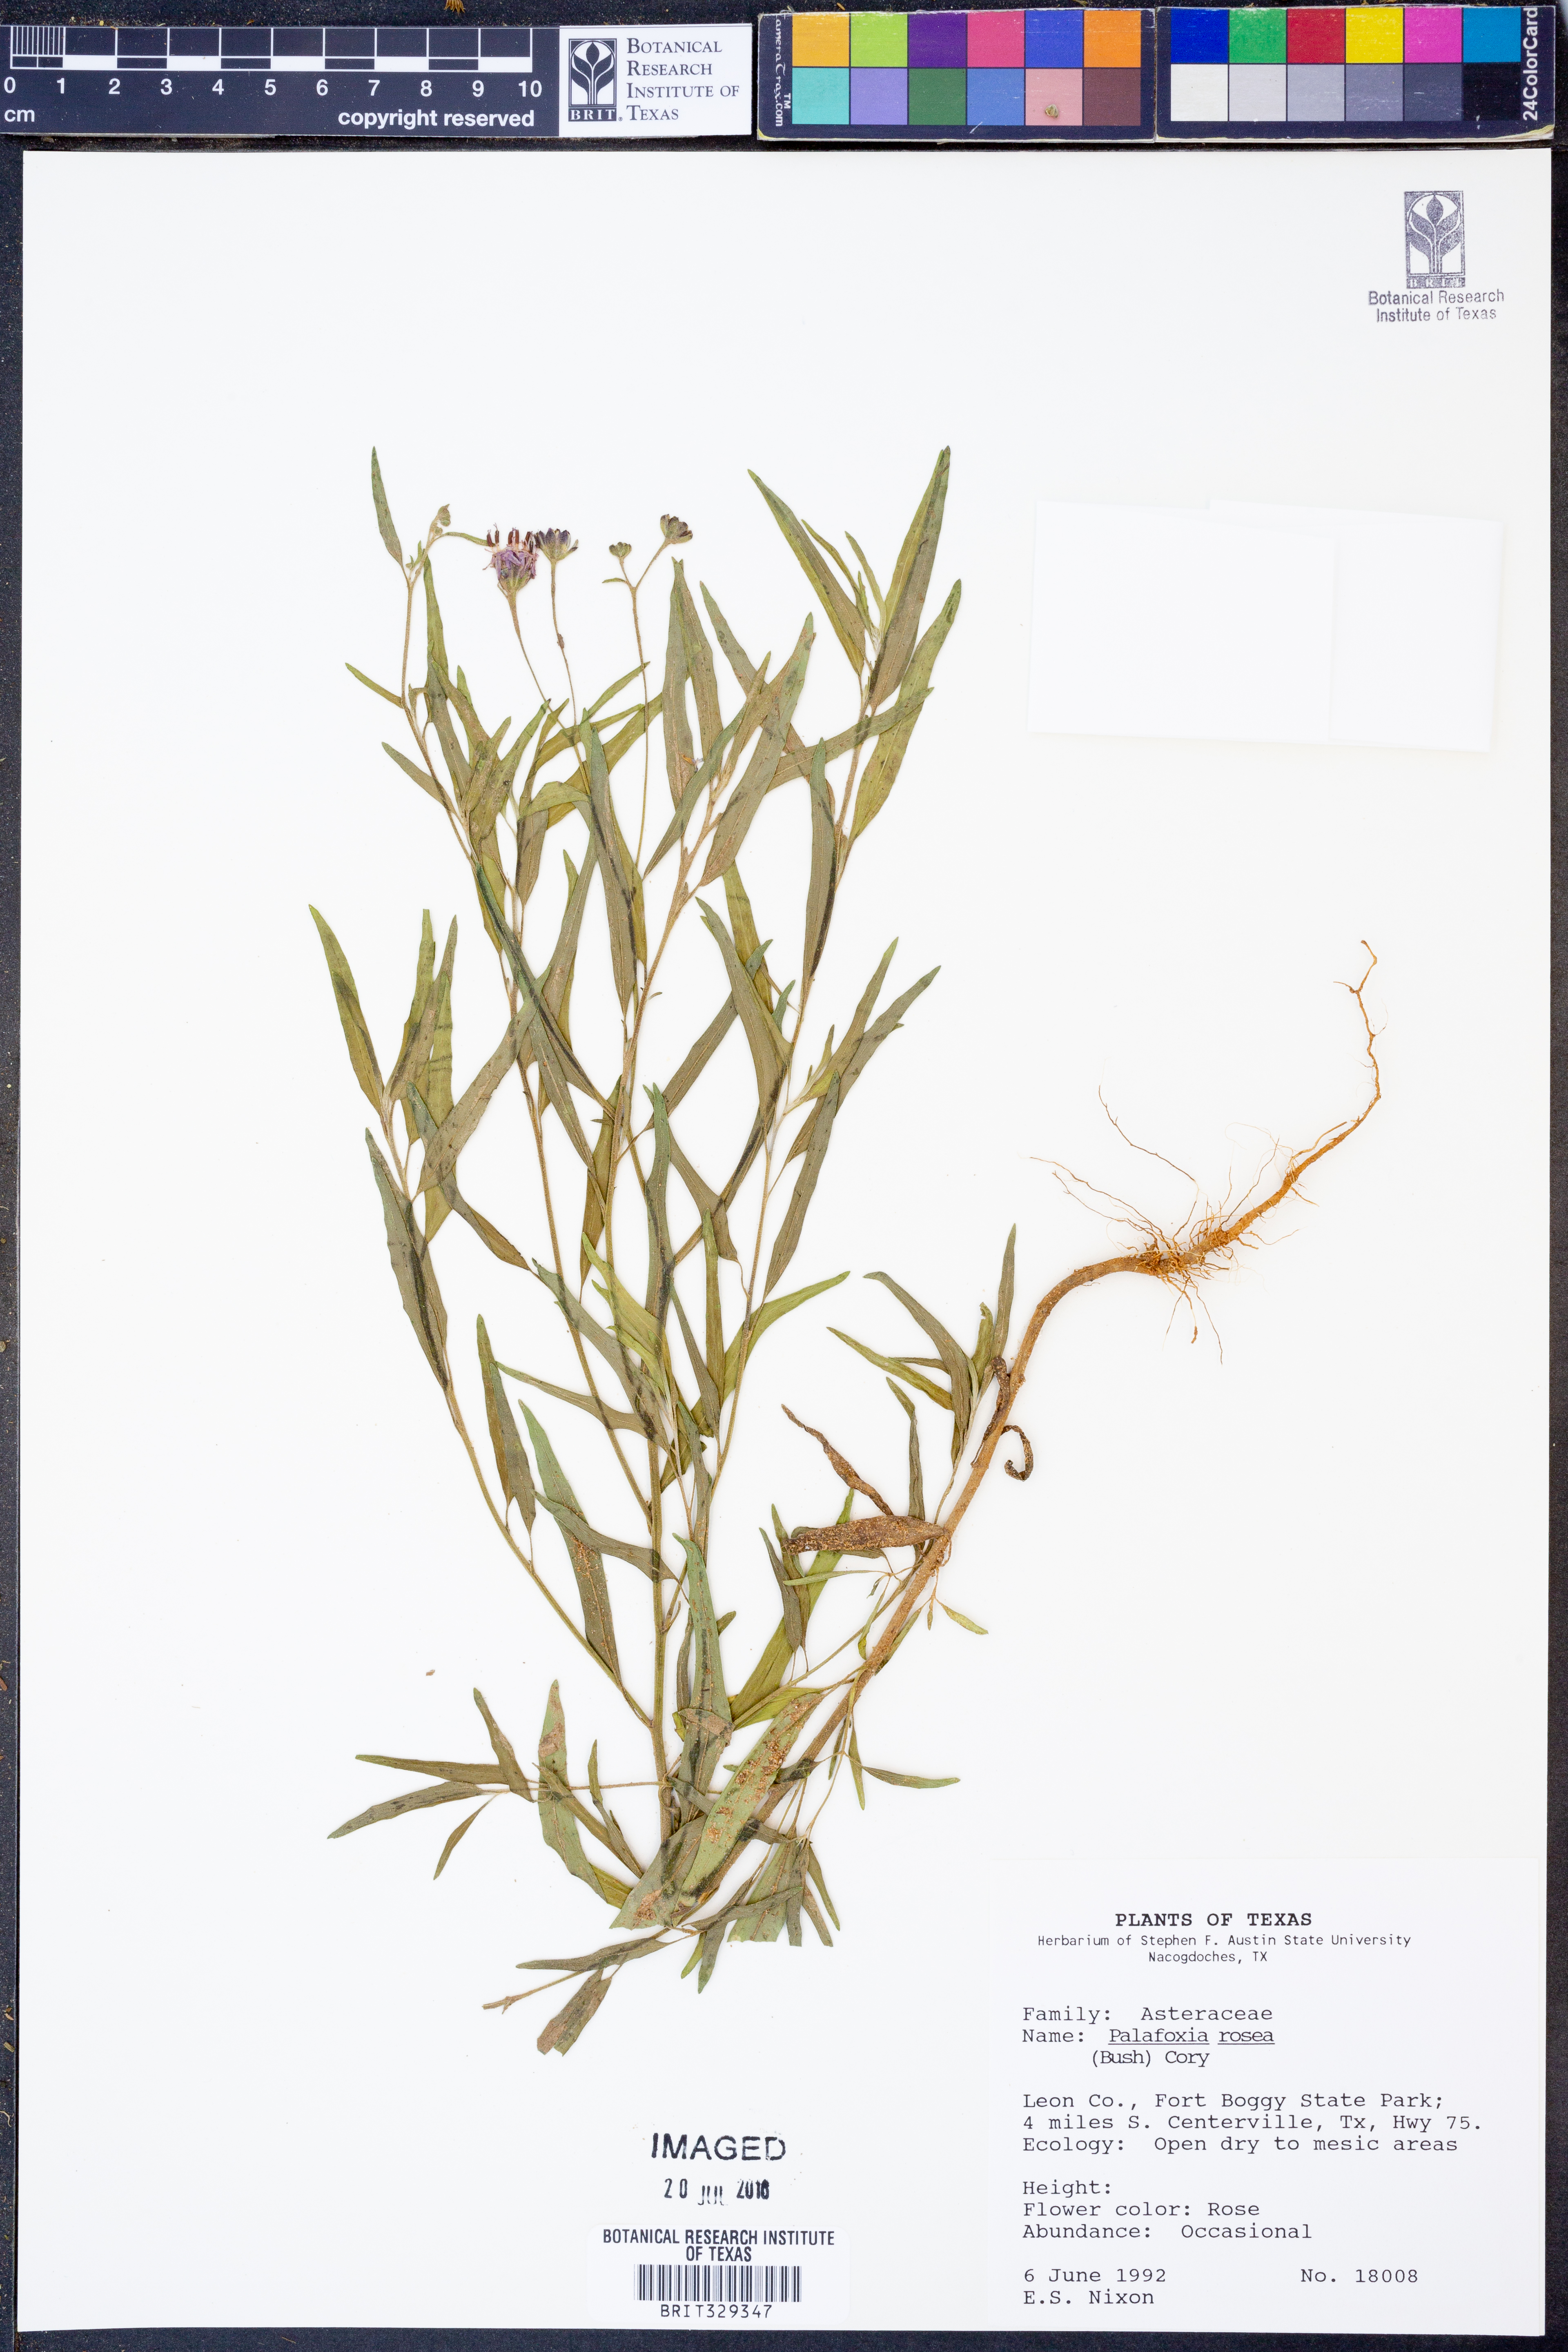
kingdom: Plantae
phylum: Tracheophyta
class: Magnoliopsida
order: Asterales
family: Asteraceae
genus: Palafoxia
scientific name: Palafoxia rosea
